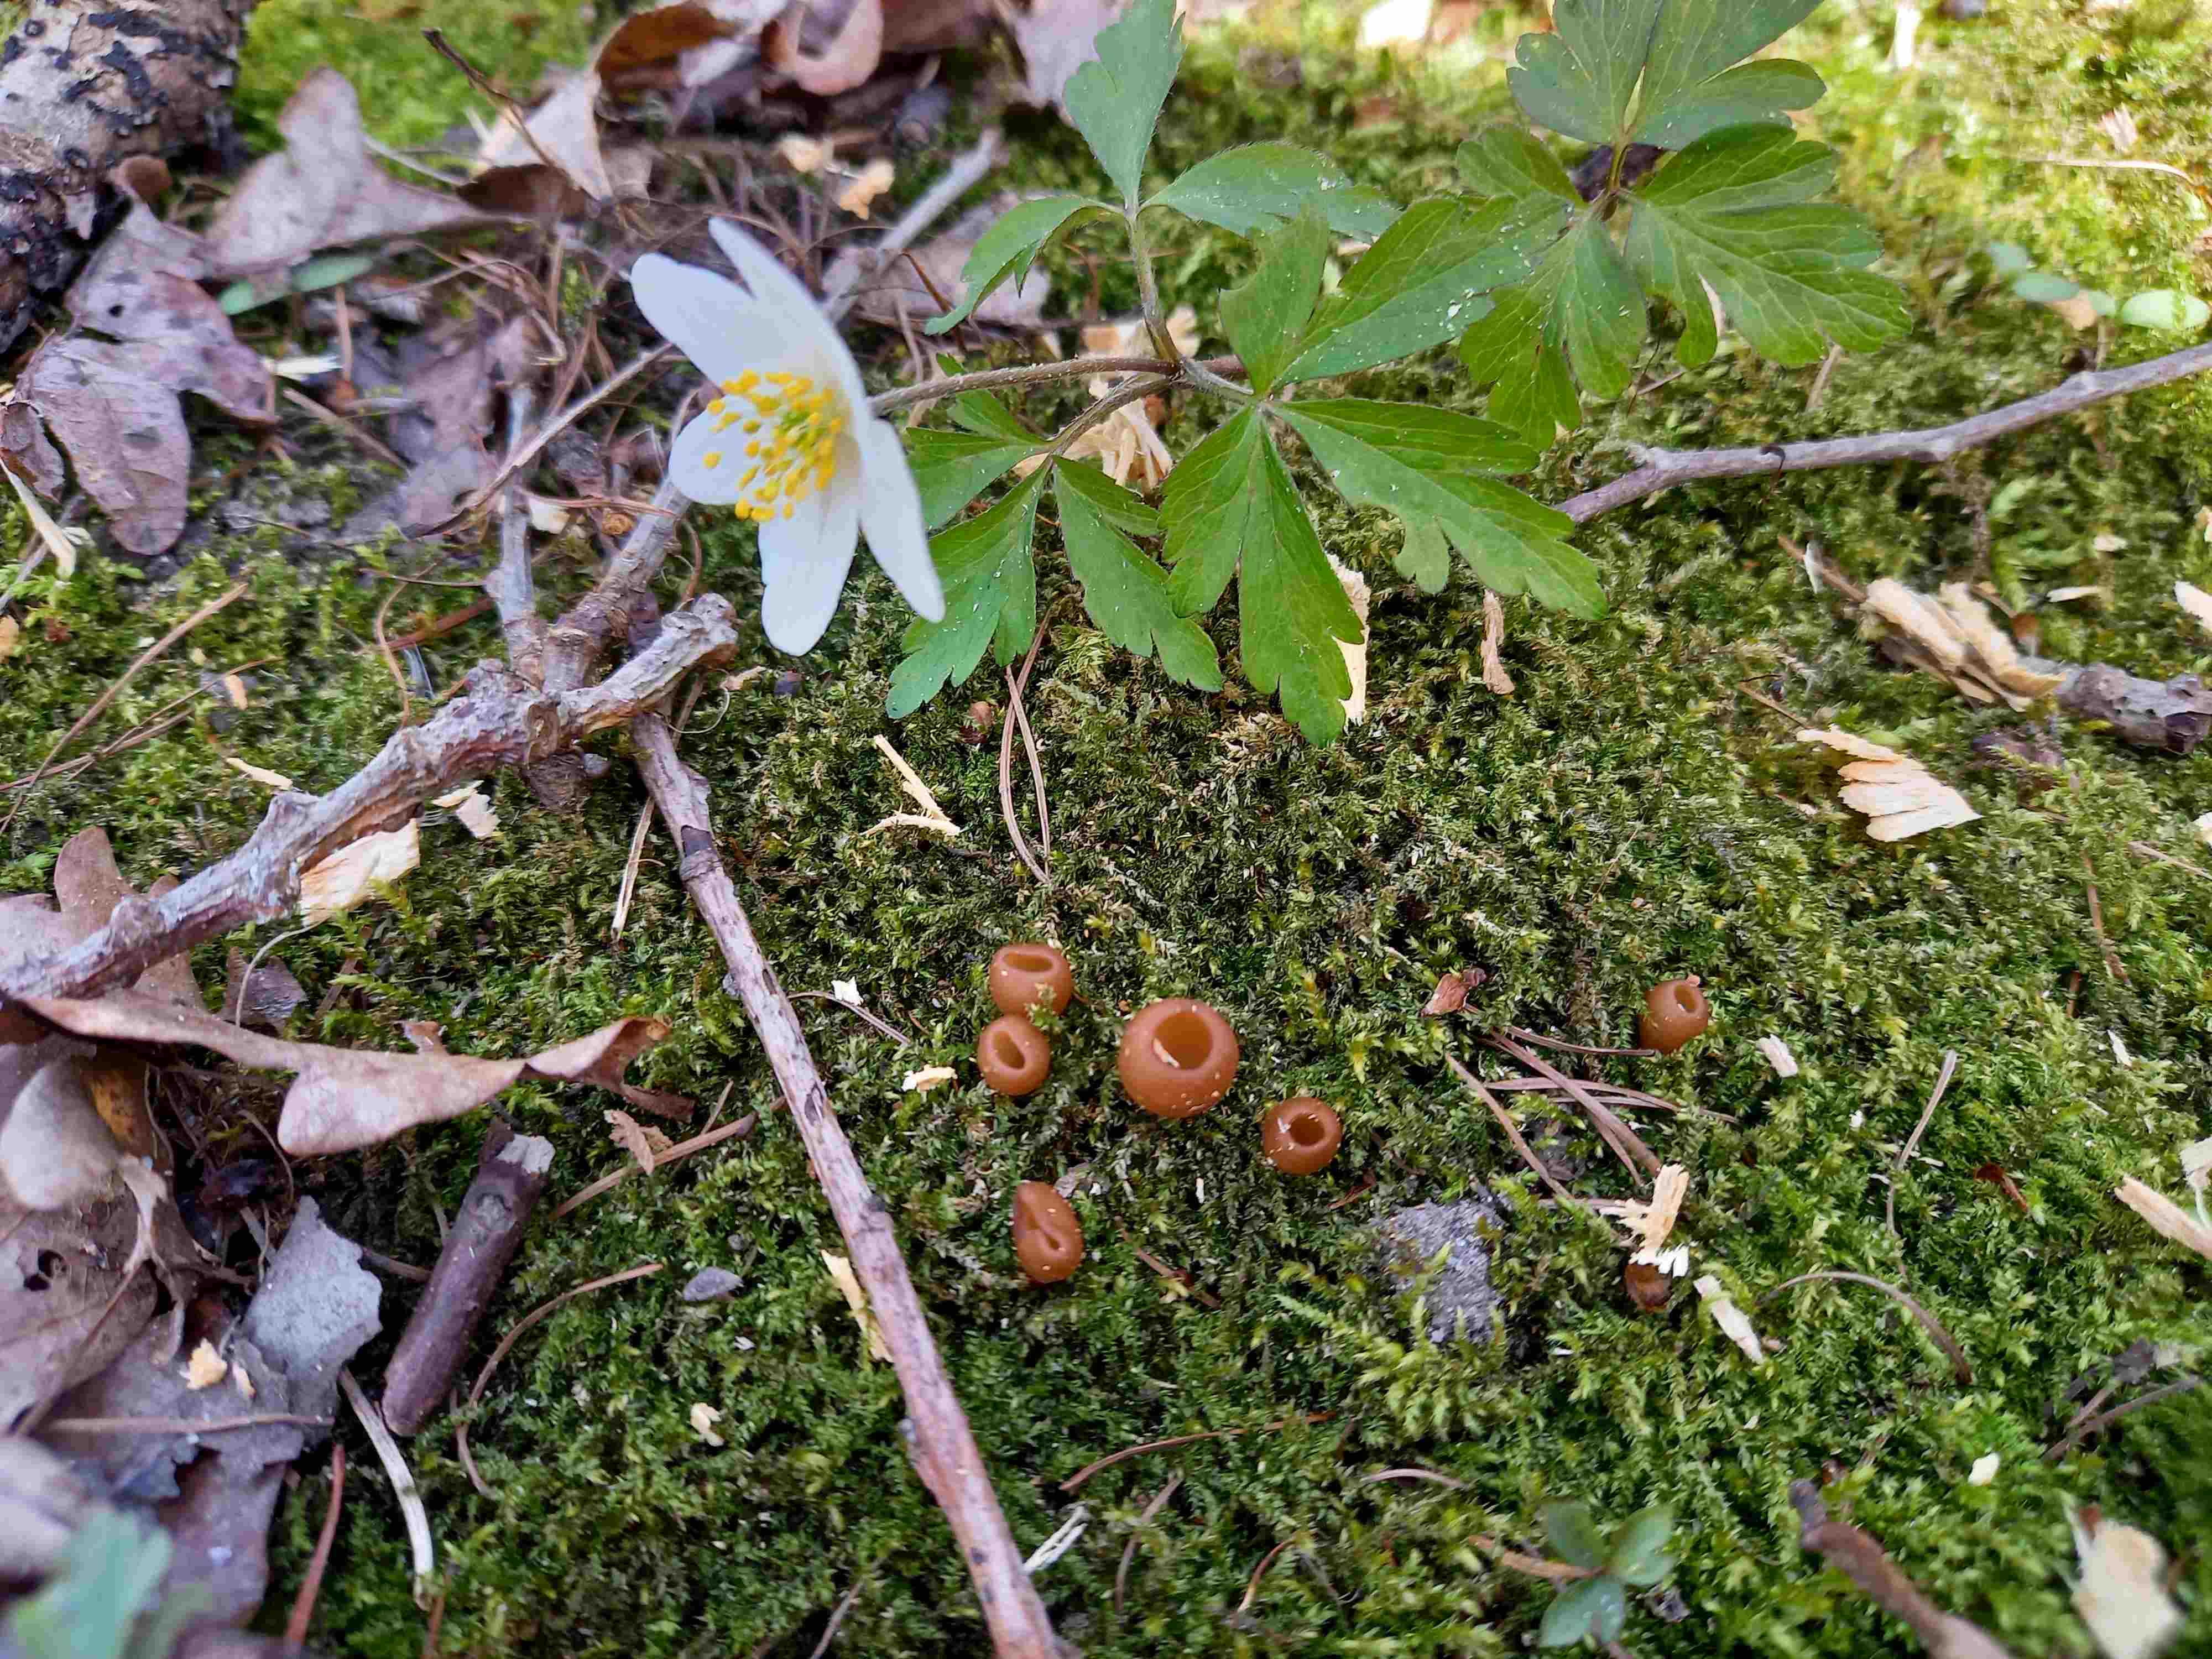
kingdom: Fungi
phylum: Ascomycota
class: Leotiomycetes
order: Helotiales
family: Sclerotiniaceae
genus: Dumontinia
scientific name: Dumontinia tuberosa
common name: anemone-knoldskive
